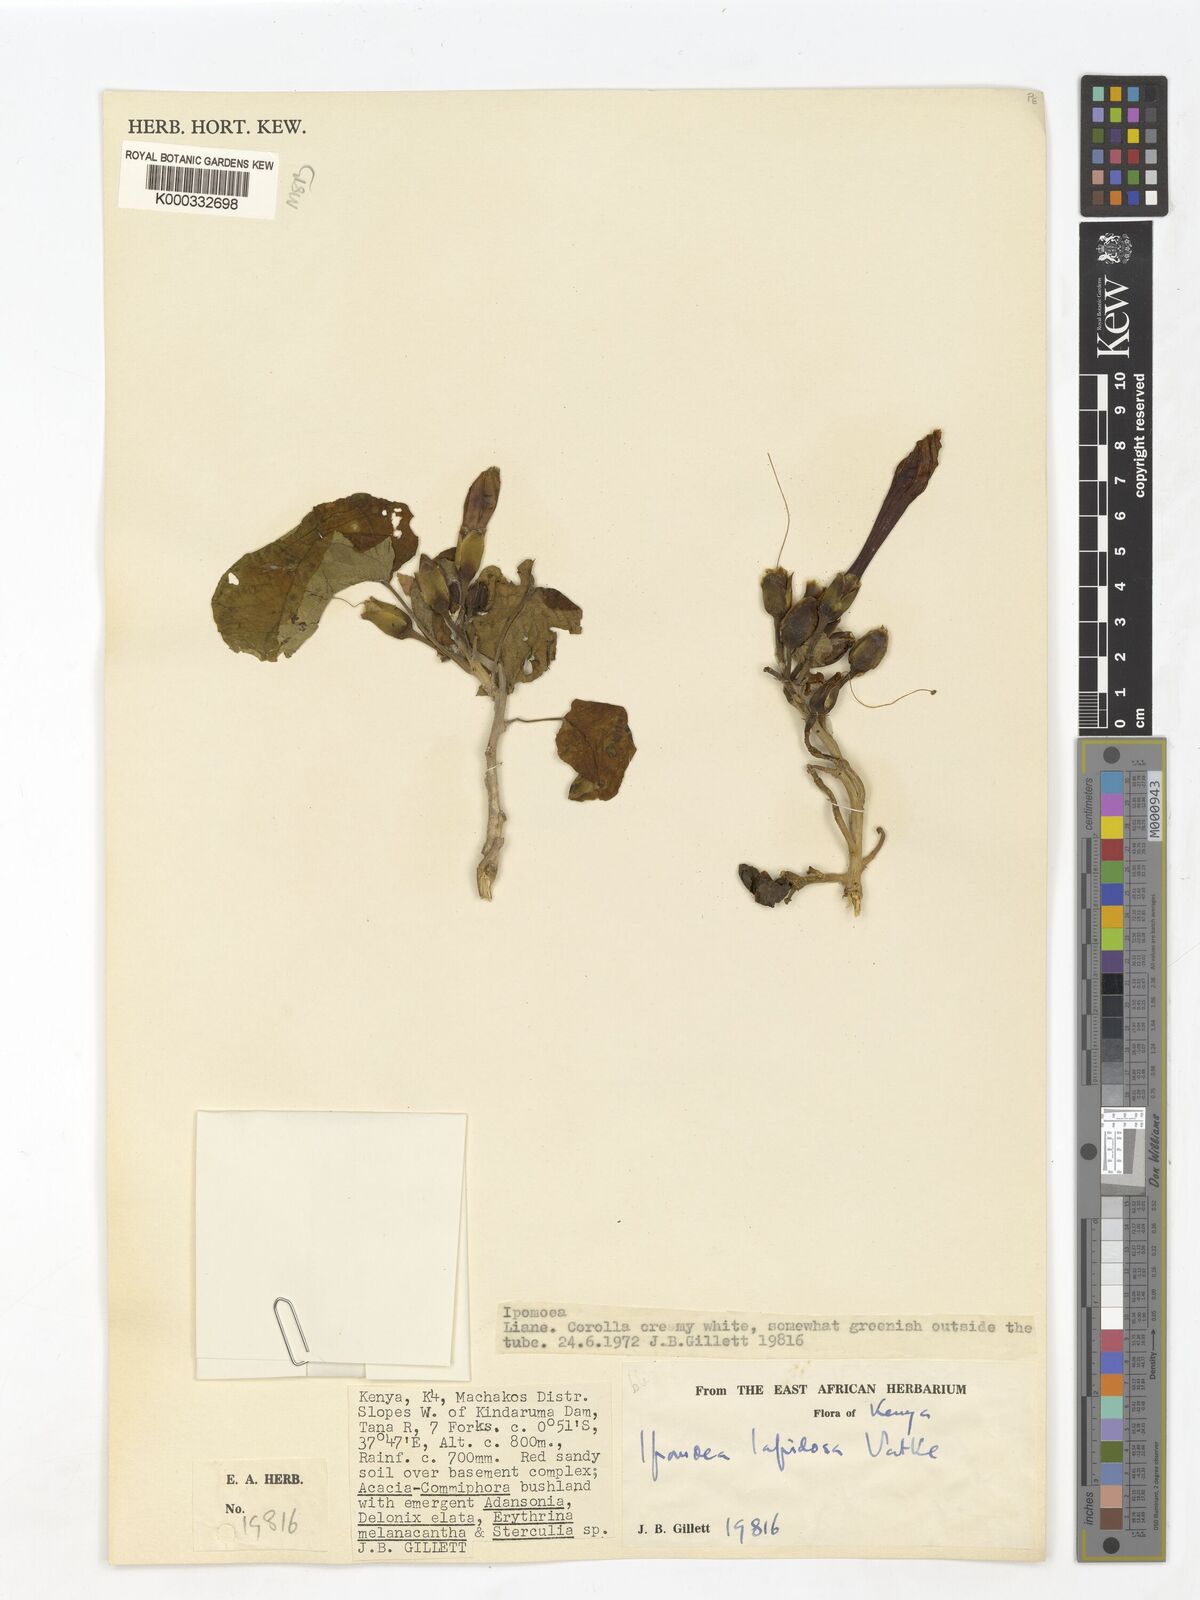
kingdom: Plantae
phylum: Tracheophyta
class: Magnoliopsida
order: Solanales
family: Convolvulaceae
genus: Ipomoea
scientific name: Ipomoea lapidosa
